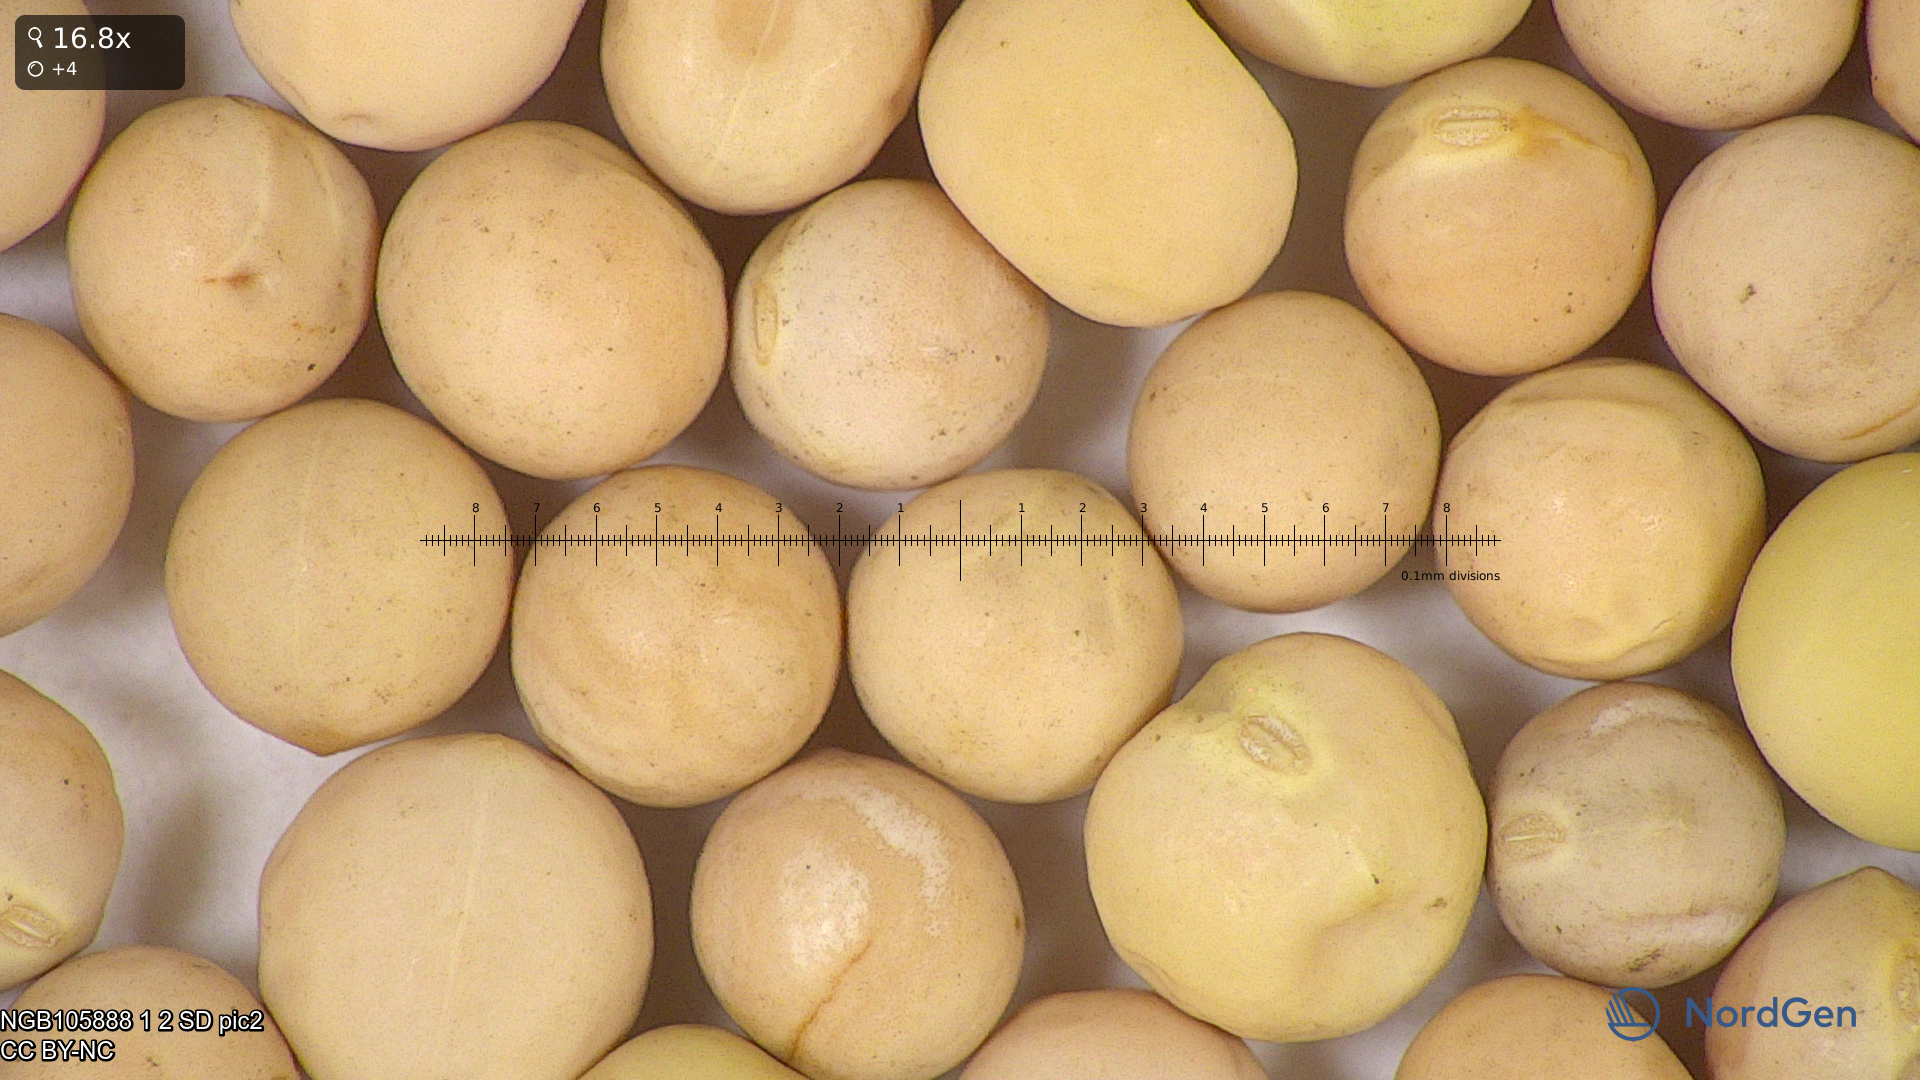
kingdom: Plantae
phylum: Tracheophyta
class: Magnoliopsida
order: Fabales
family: Fabaceae
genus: Lathyrus
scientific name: Lathyrus oleraceus
